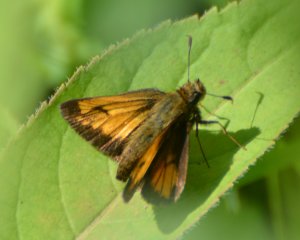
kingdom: Animalia
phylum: Arthropoda
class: Insecta
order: Lepidoptera
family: Hesperiidae
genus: Lon
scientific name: Lon hobomok
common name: Hobomok Skipper
